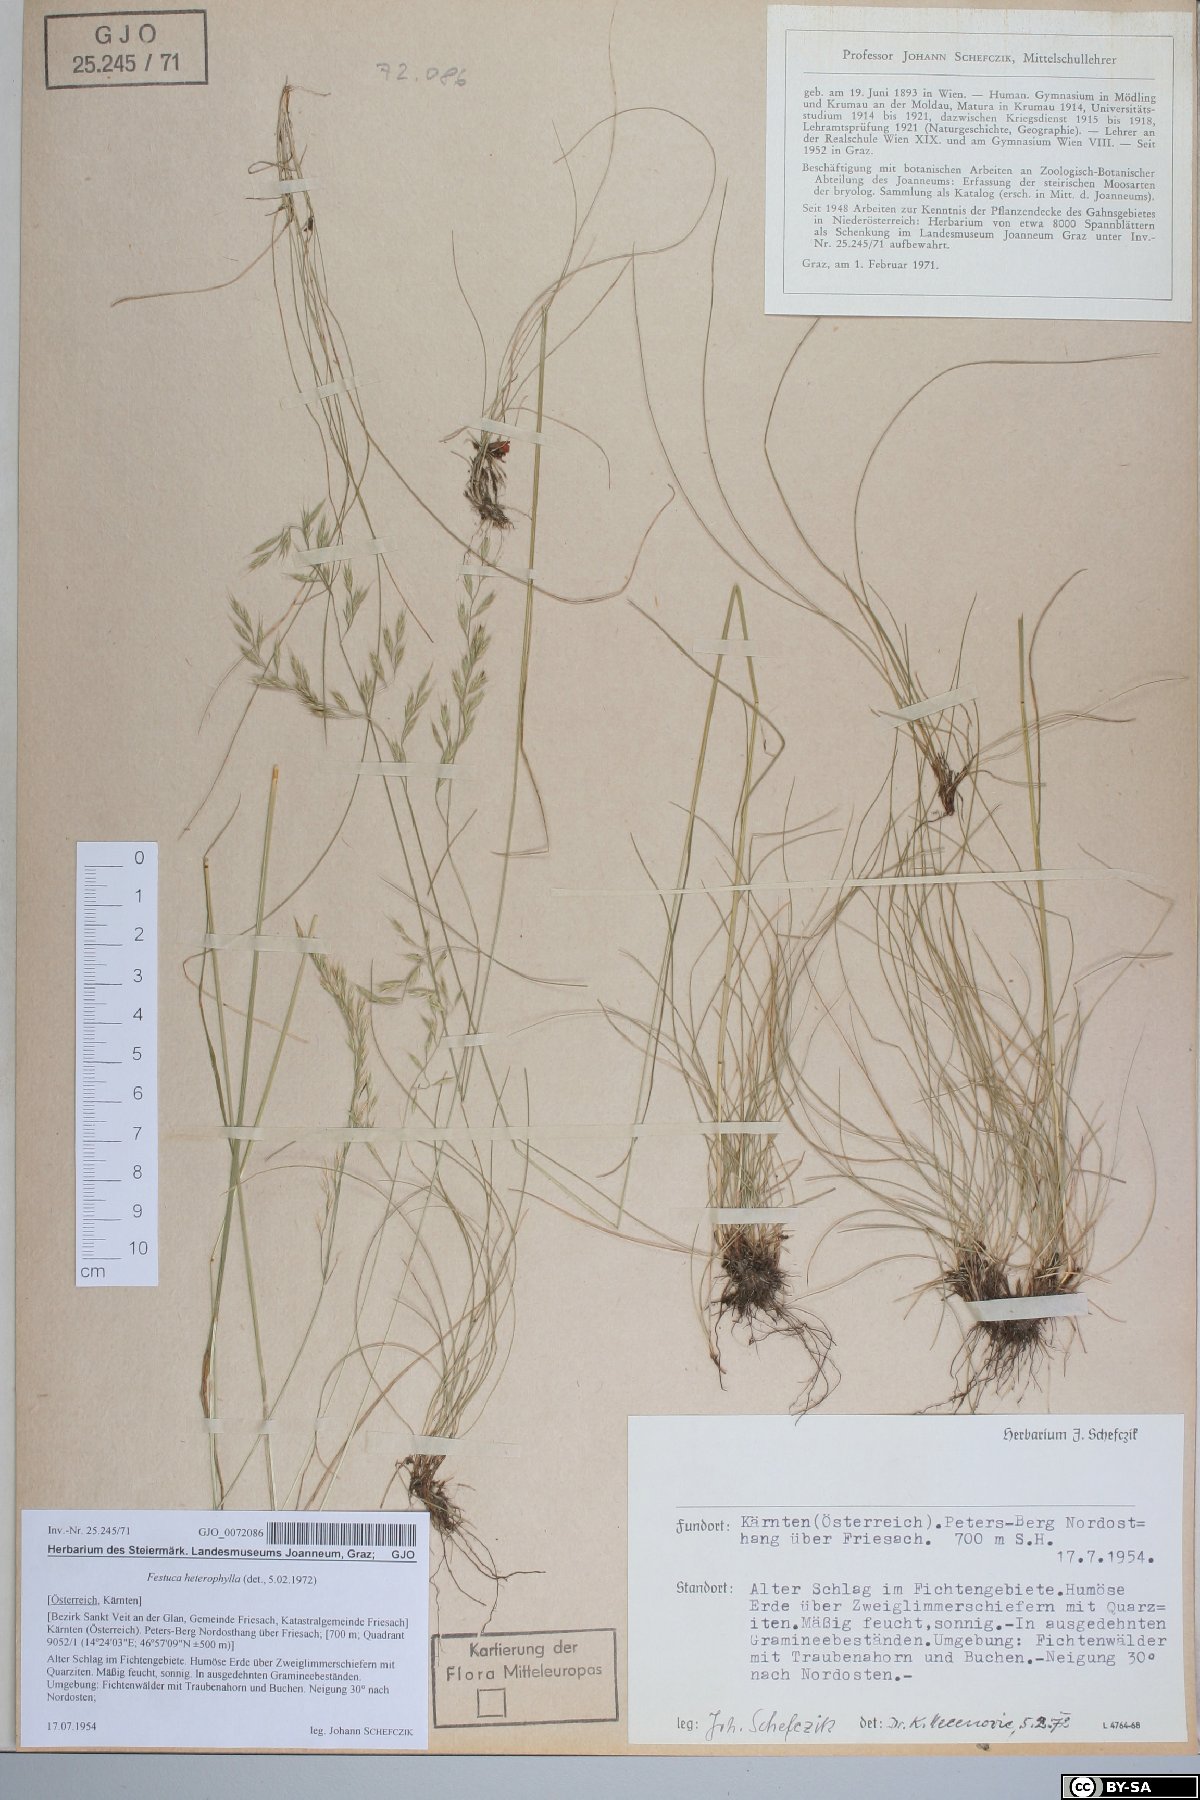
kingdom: Plantae
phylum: Tracheophyta
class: Liliopsida
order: Poales
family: Poaceae
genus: Festuca
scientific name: Festuca heterophylla
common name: Various-leaved fescue
